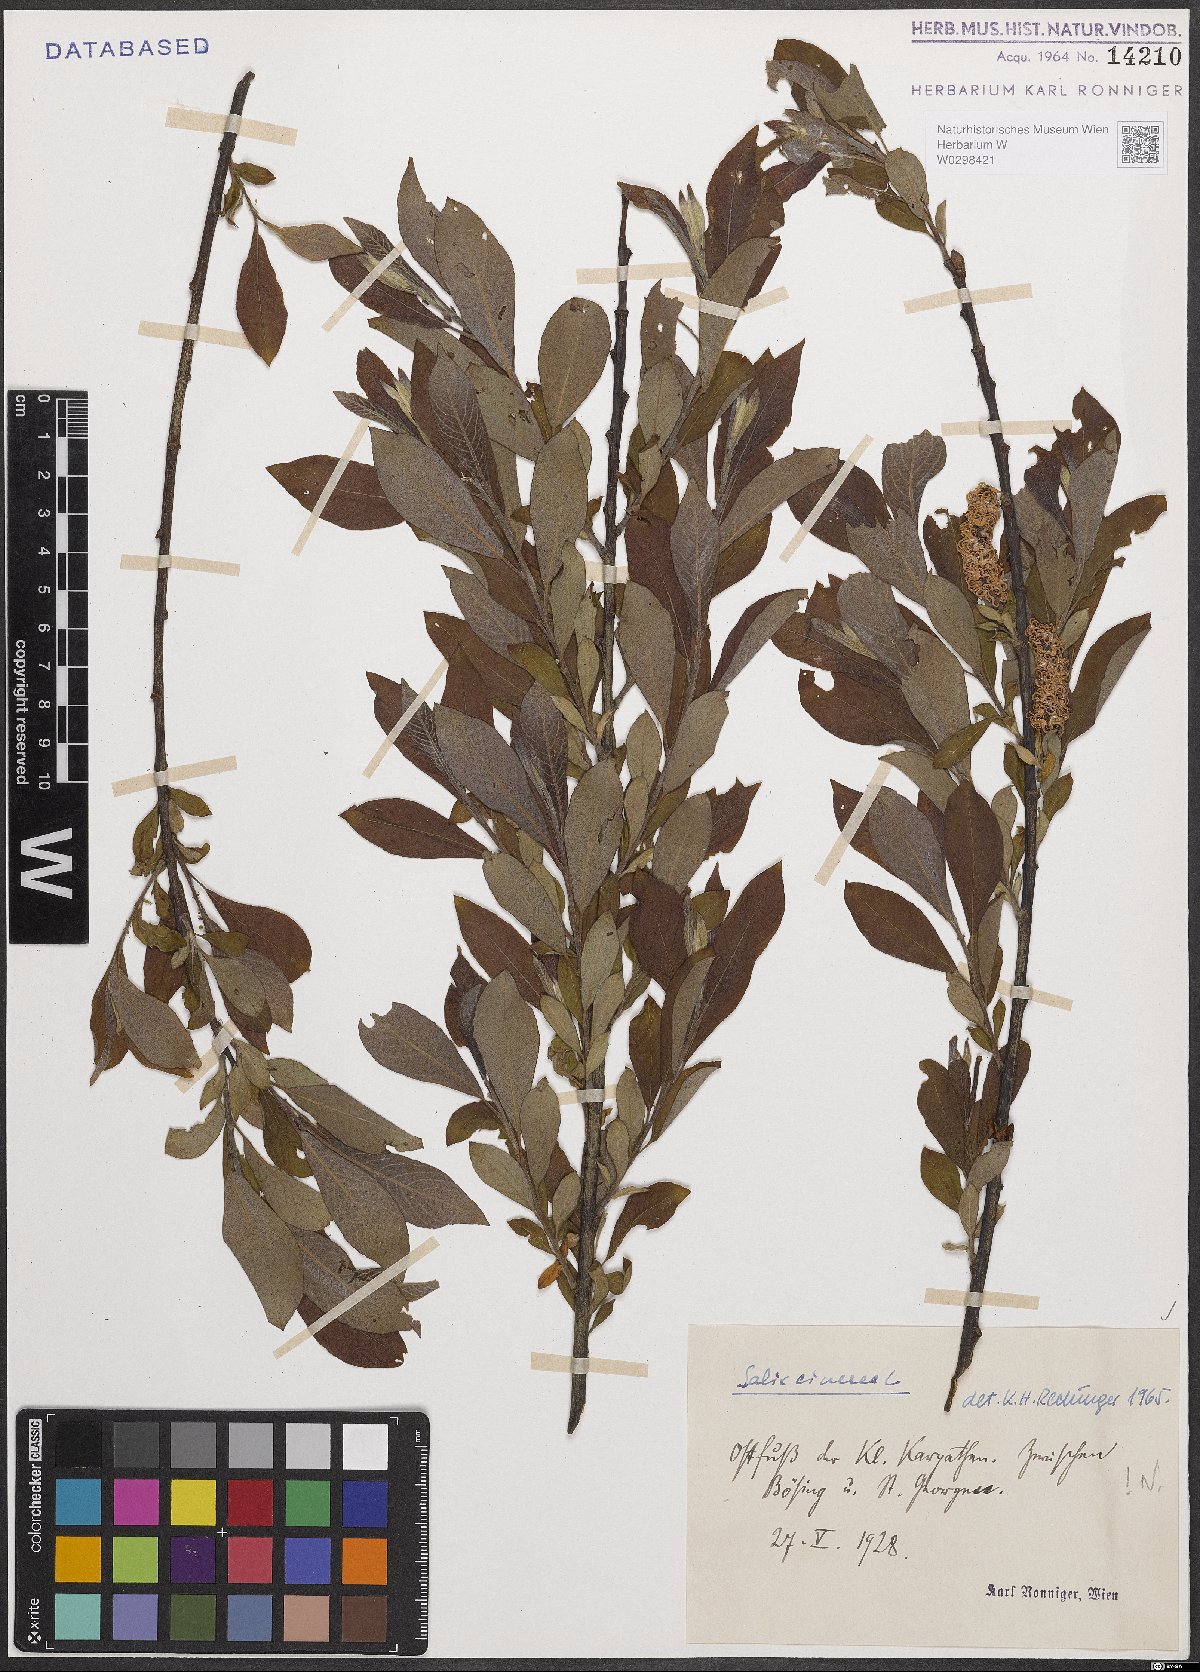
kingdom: Plantae
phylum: Tracheophyta
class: Magnoliopsida
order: Malpighiales
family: Salicaceae
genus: Salix
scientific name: Salix cinerea
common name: Common sallow
